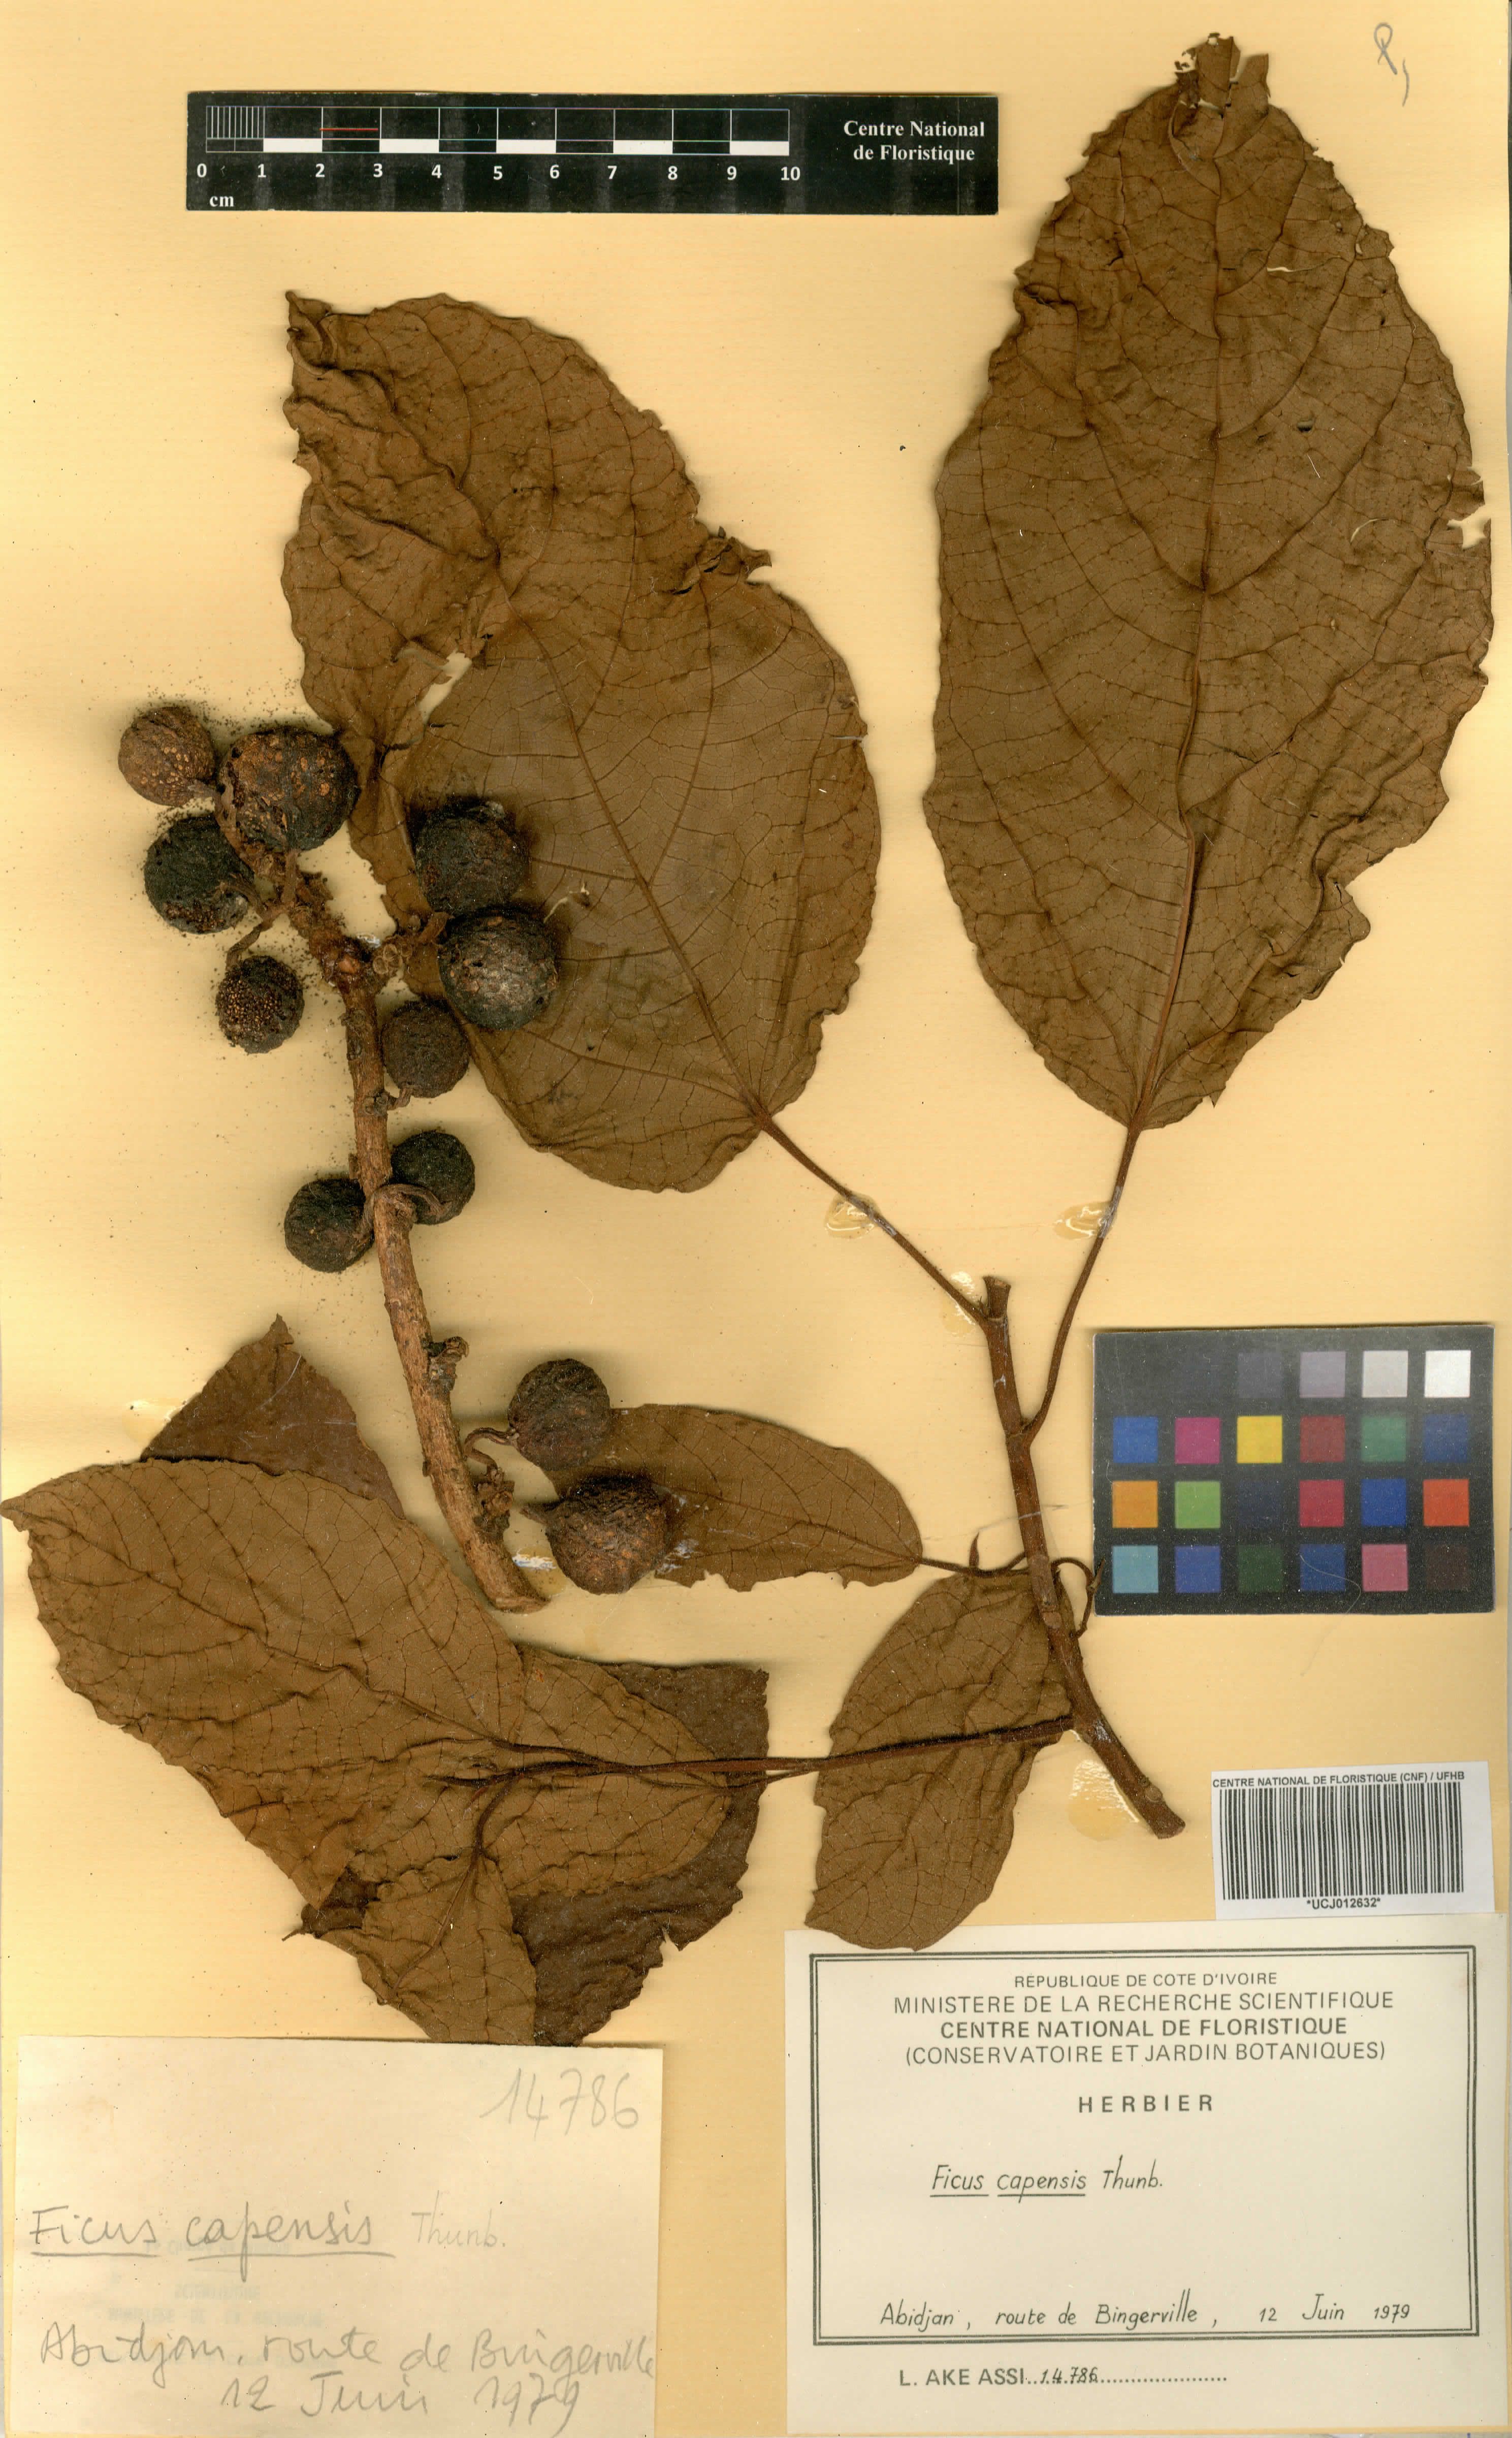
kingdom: Plantae
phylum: Tracheophyta
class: Magnoliopsida
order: Rosales
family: Moraceae
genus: Ficus
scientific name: Ficus sur
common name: Cape fig
